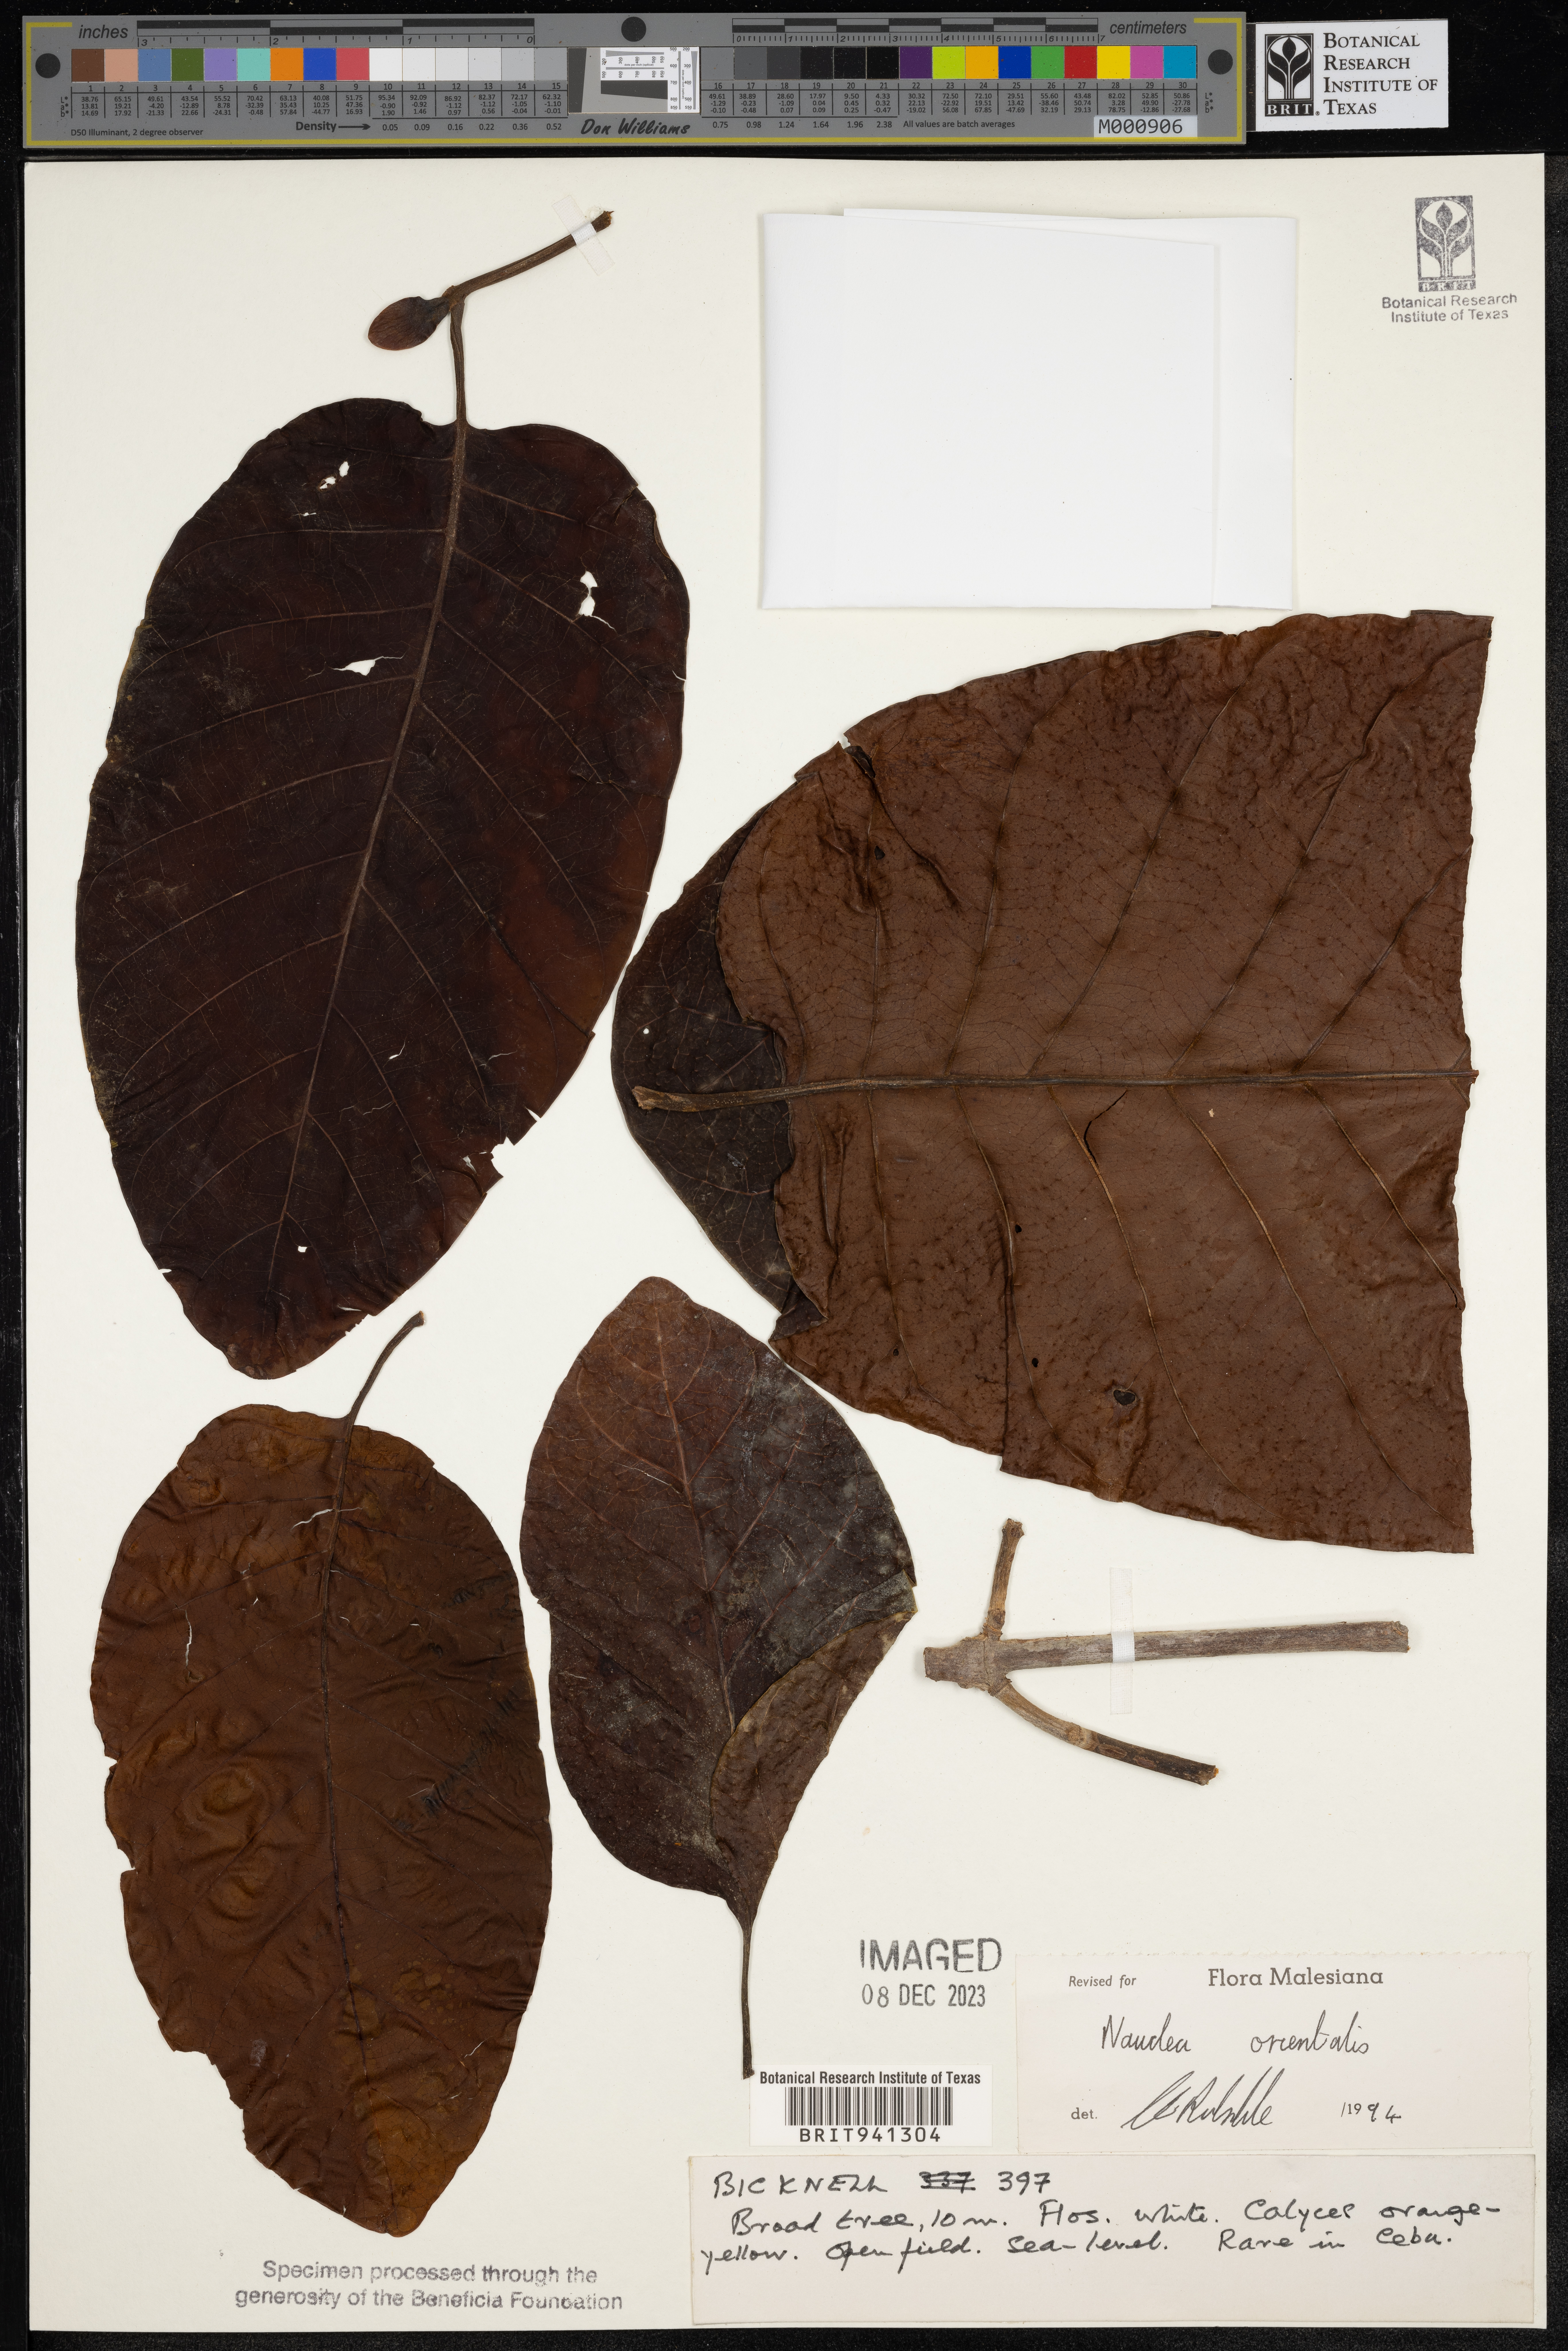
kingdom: Plantae
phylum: Tracheophyta
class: Magnoliopsida
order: Gentianales
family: Rubiaceae
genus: Nauclea
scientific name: Nauclea
